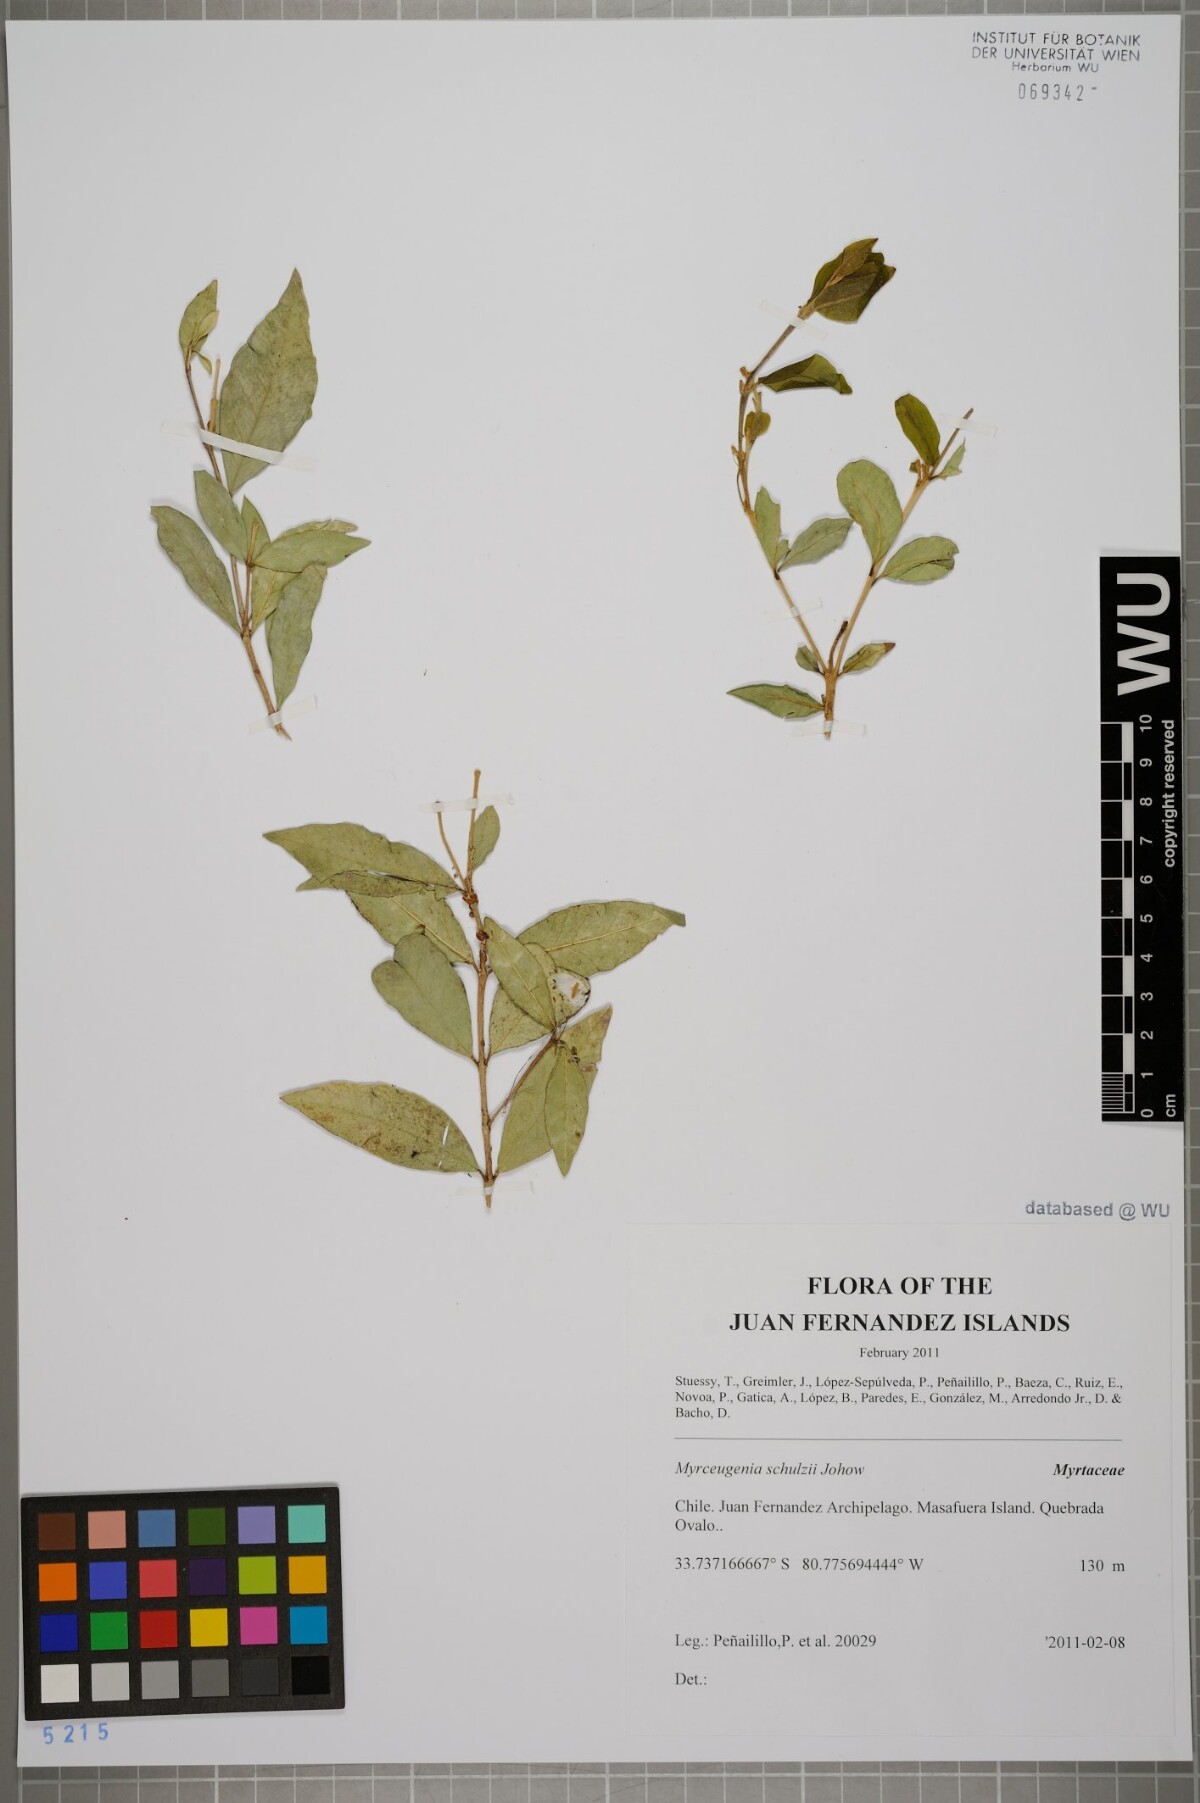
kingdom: Plantae
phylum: Tracheophyta
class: Magnoliopsida
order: Myrtales
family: Myrtaceae
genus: Myrceugenia
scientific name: Myrceugenia schulzei
